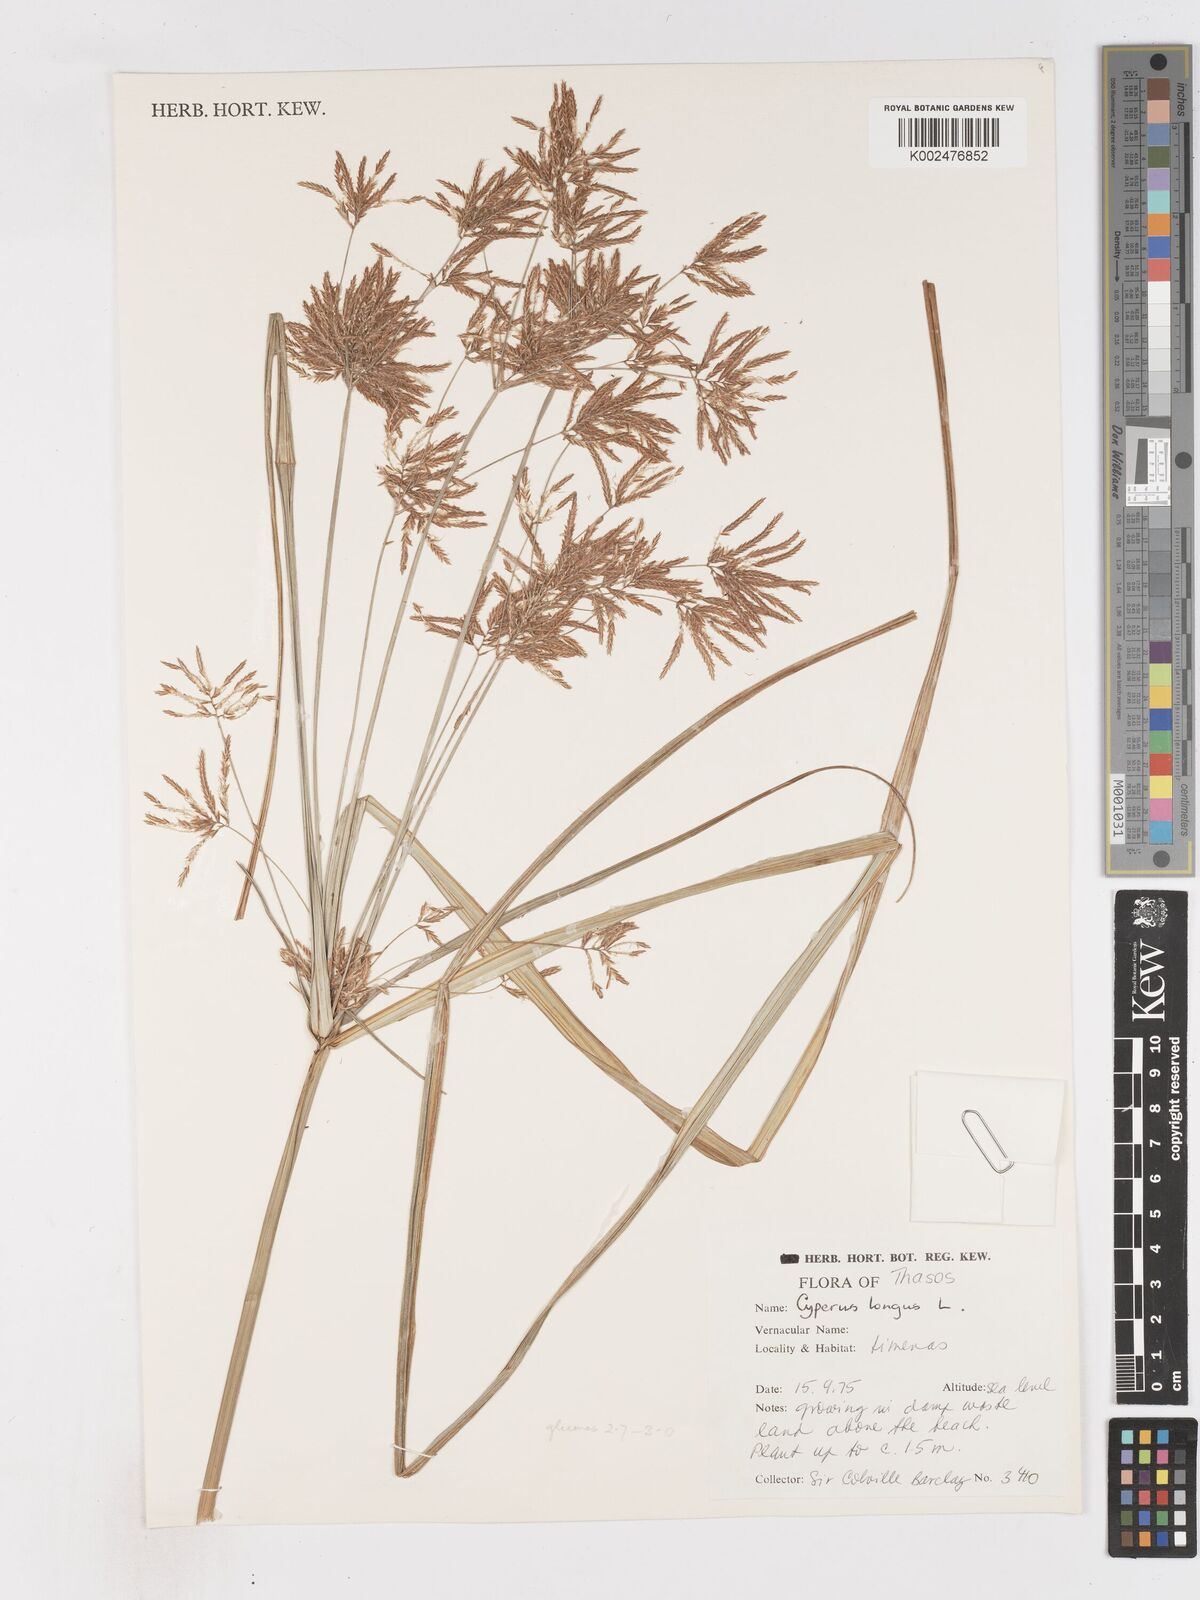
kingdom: Plantae
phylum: Tracheophyta
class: Liliopsida
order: Poales
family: Cyperaceae
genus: Cyperus
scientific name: Cyperus longus
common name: Galingale
